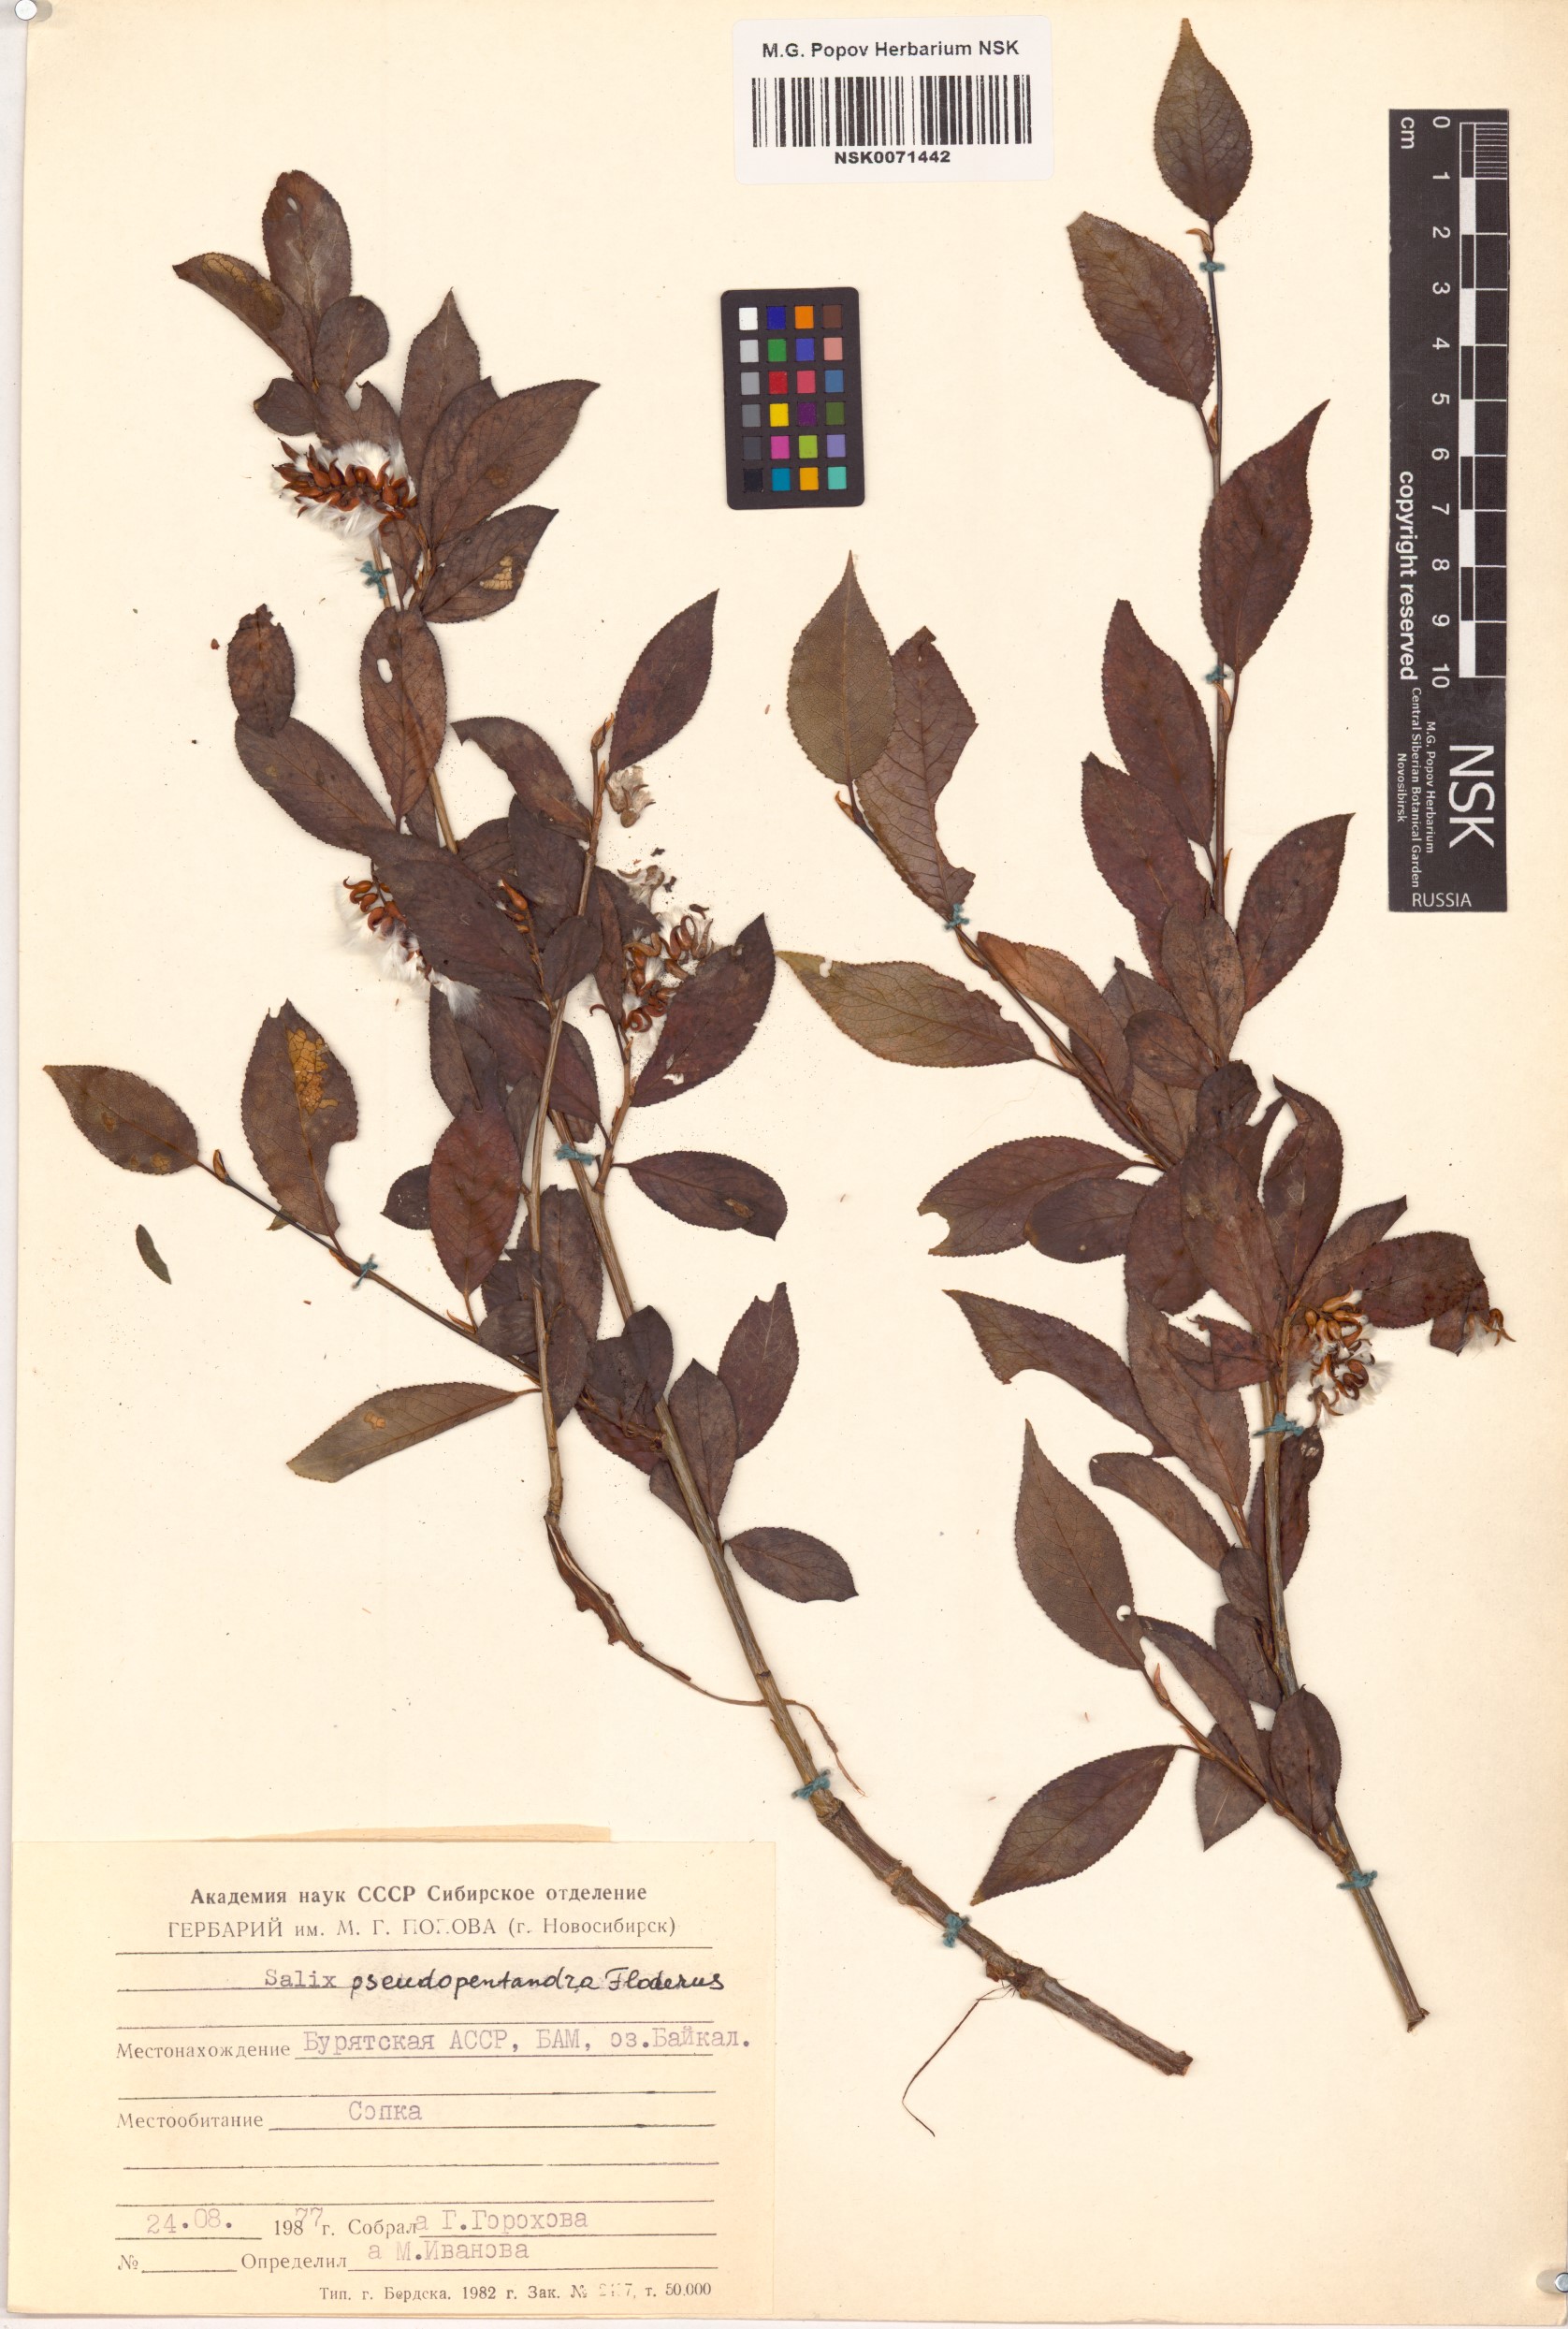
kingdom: Plantae
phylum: Tracheophyta
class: Magnoliopsida
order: Malpighiales
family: Salicaceae
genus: Salix
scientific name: Salix pseudopentandra
